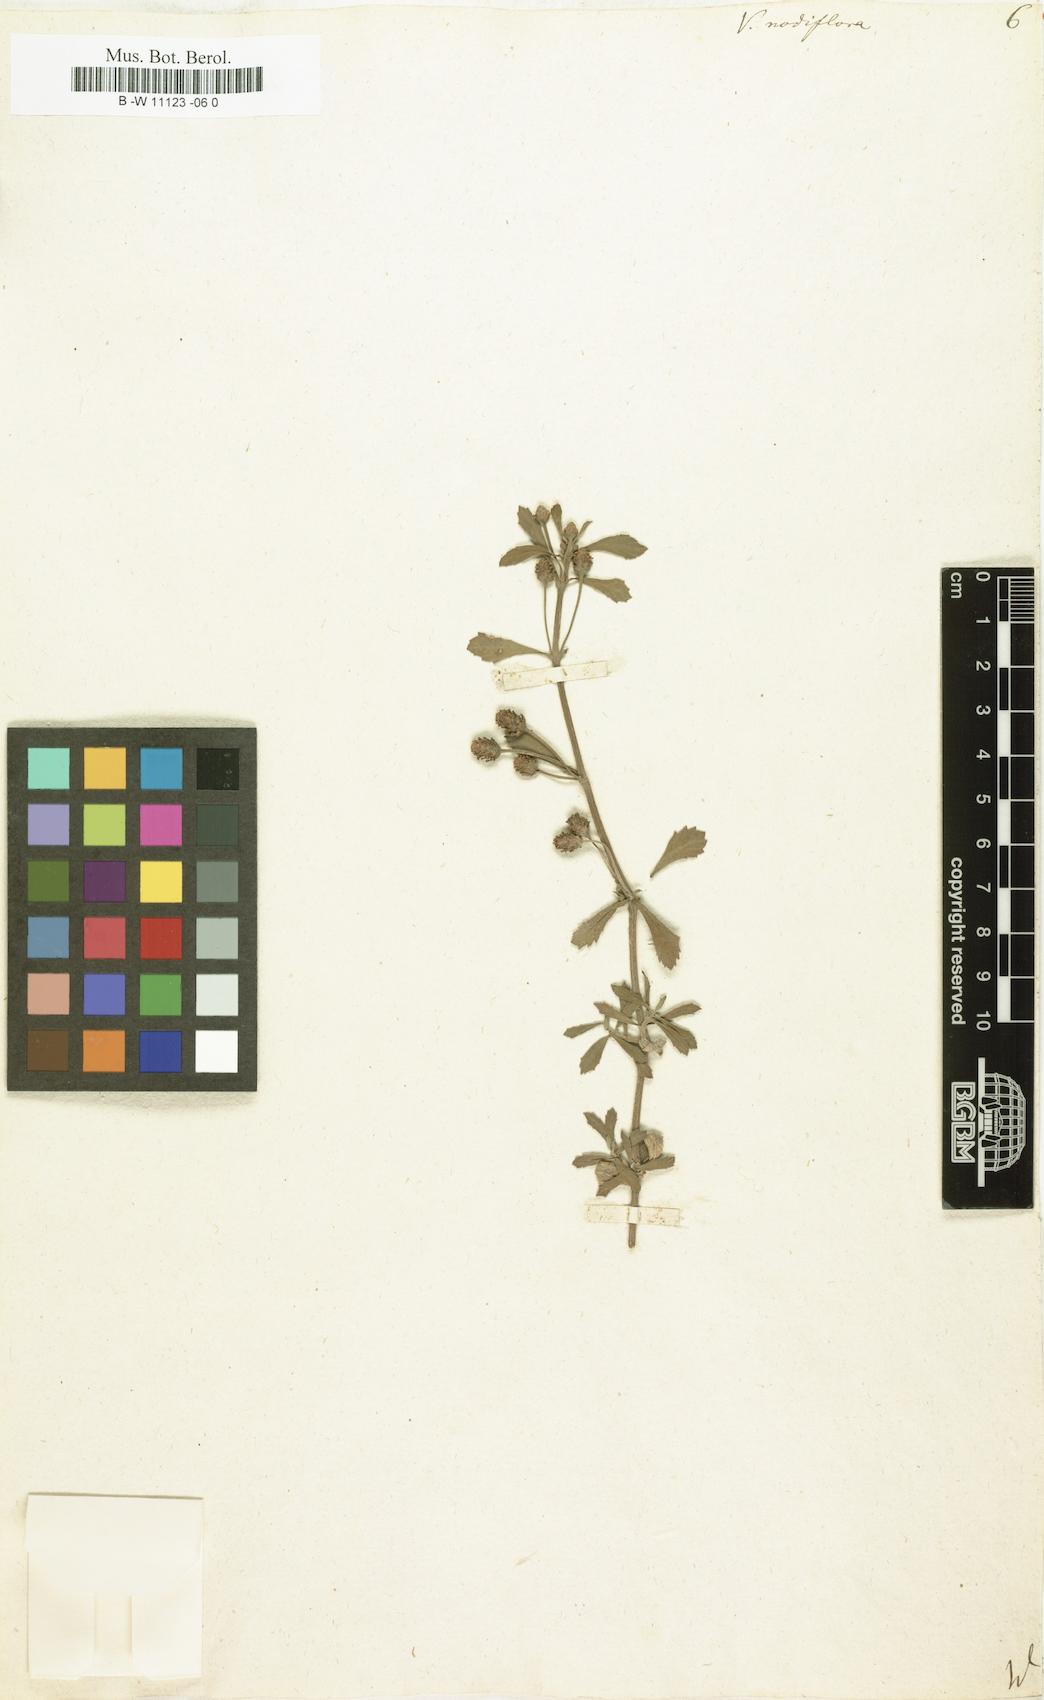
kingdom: Plantae
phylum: Tracheophyta
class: Magnoliopsida
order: Lamiales
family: Verbenaceae
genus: Verbena
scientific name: Verbena nodiflora
